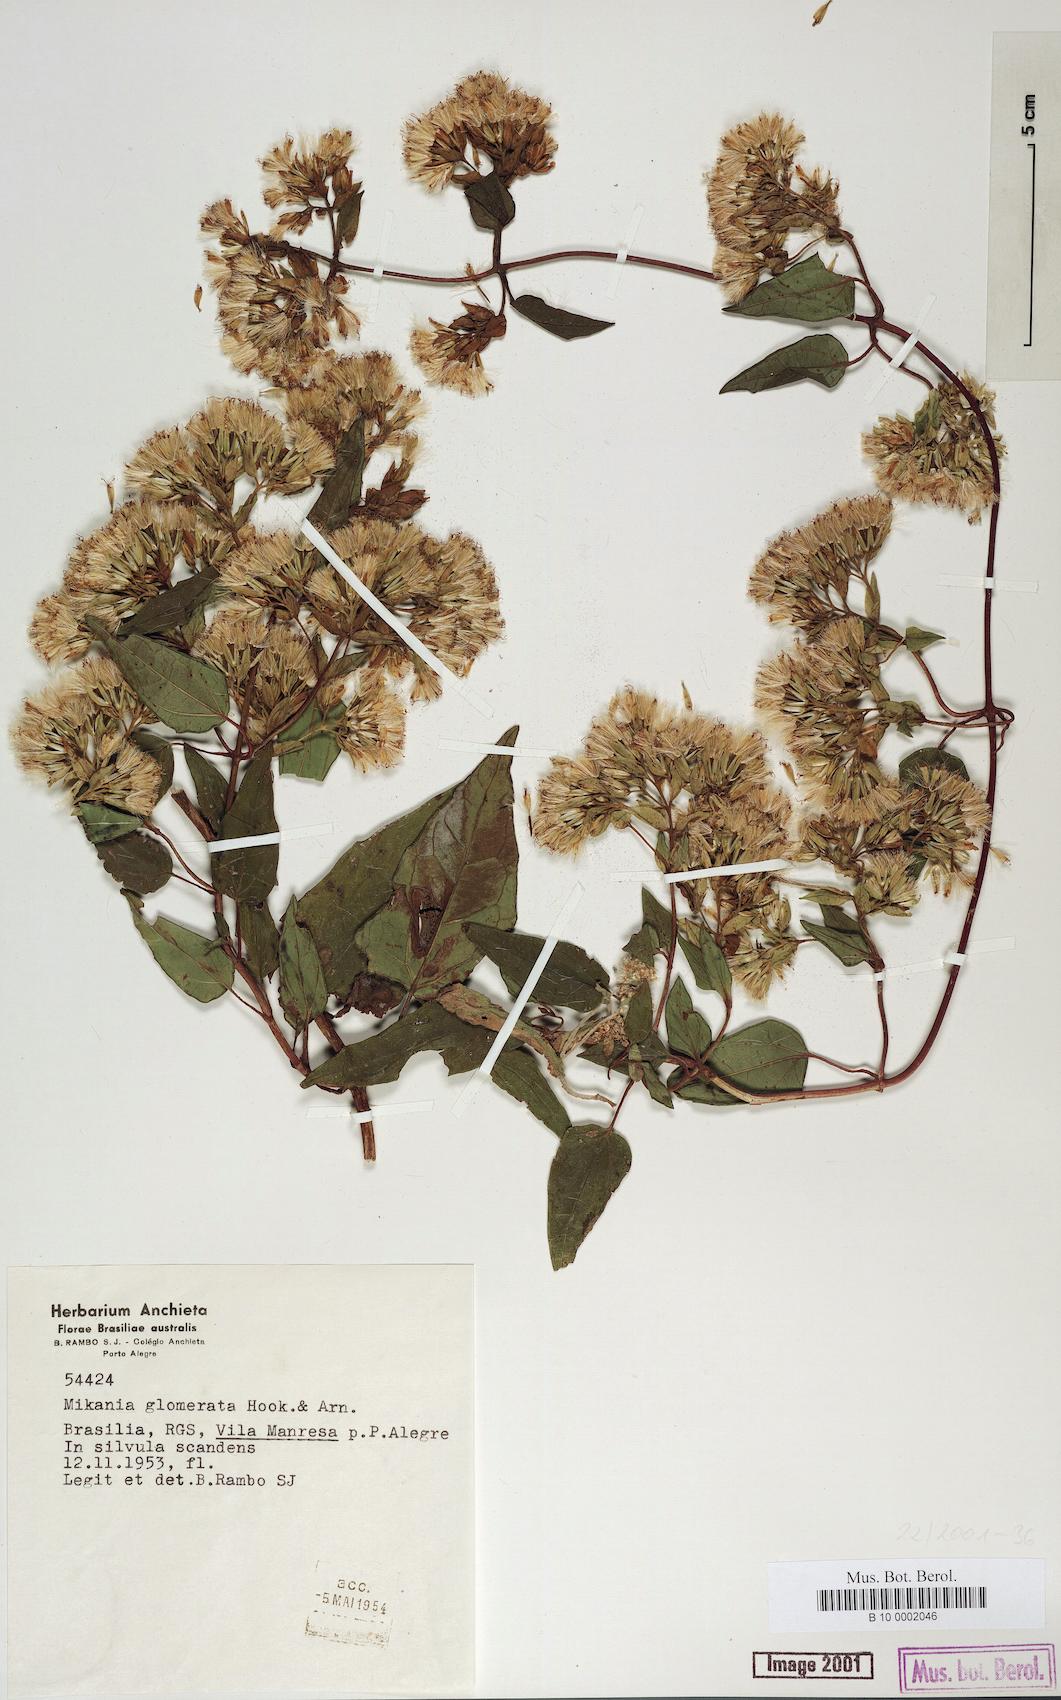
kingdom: Plantae
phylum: Tracheophyta
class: Magnoliopsida
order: Asterales
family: Asteraceae
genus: Mikania
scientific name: Mikania glomerata
